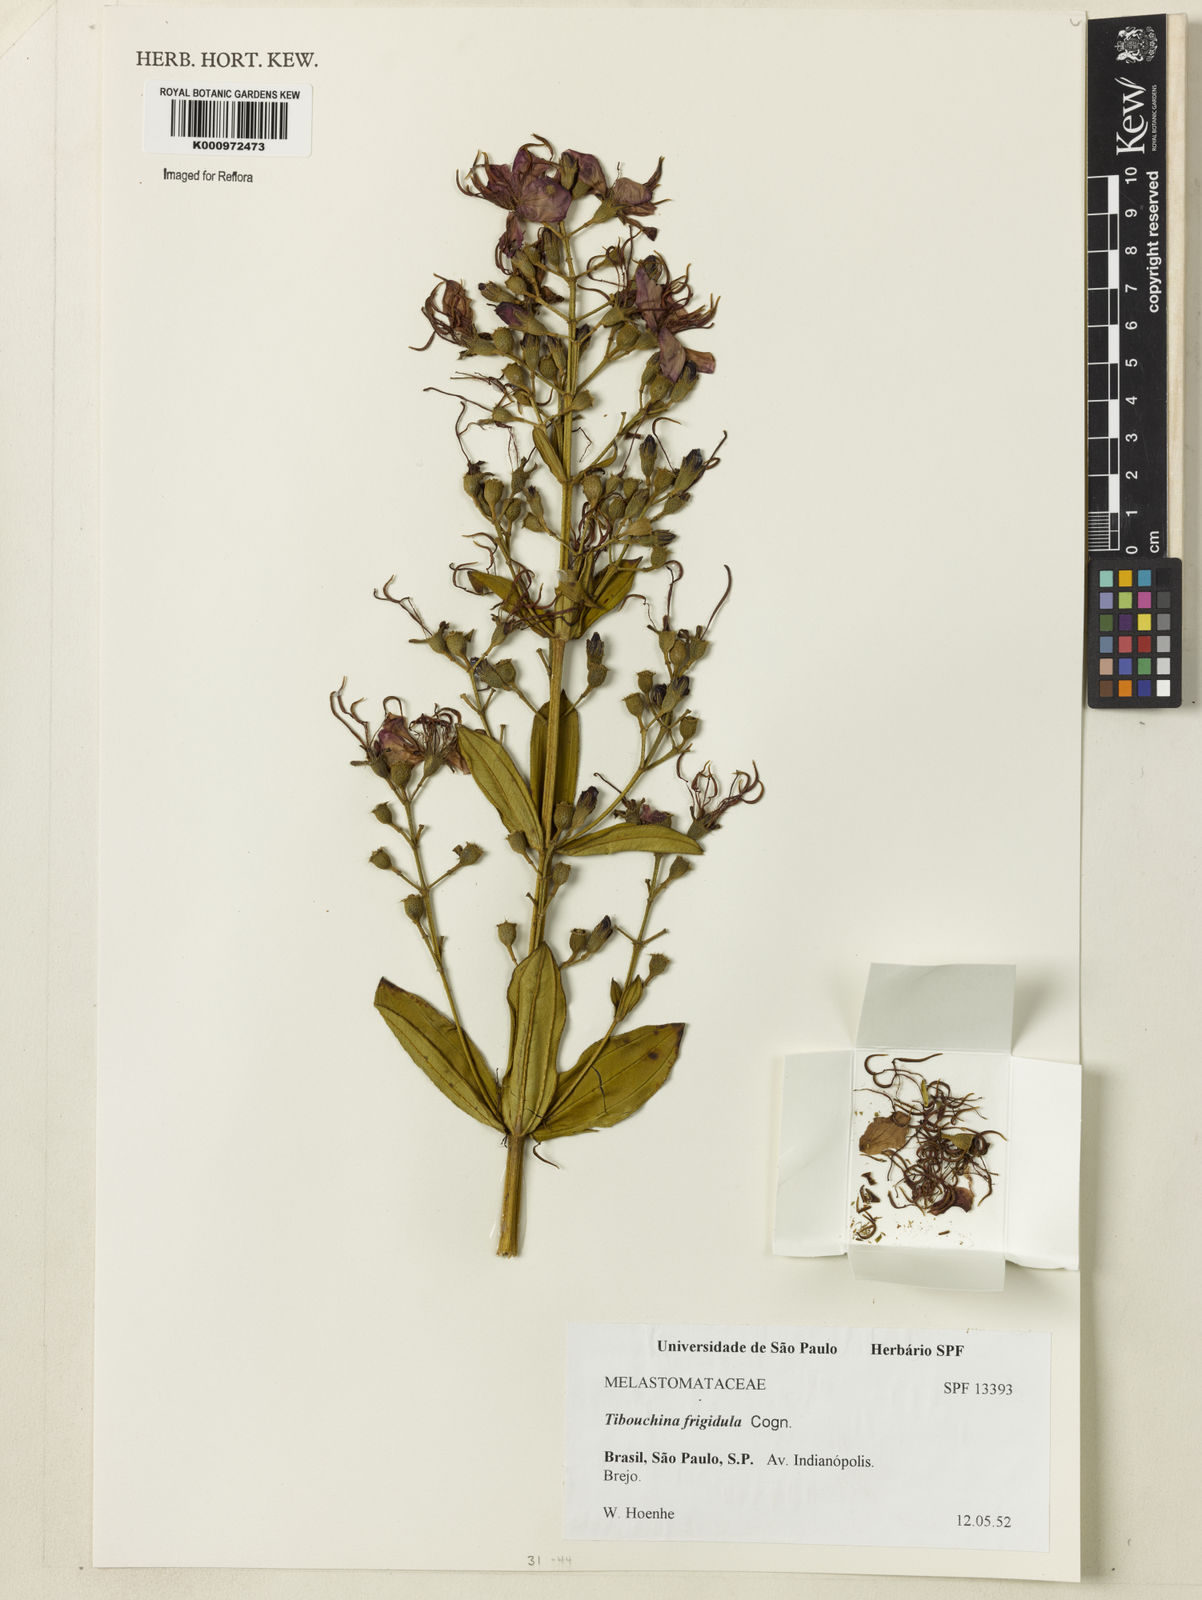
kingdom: Plantae
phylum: Tracheophyta
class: Magnoliopsida
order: Myrtales
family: Melastomataceae
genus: Pleroma
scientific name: Pleroma martiusianum
